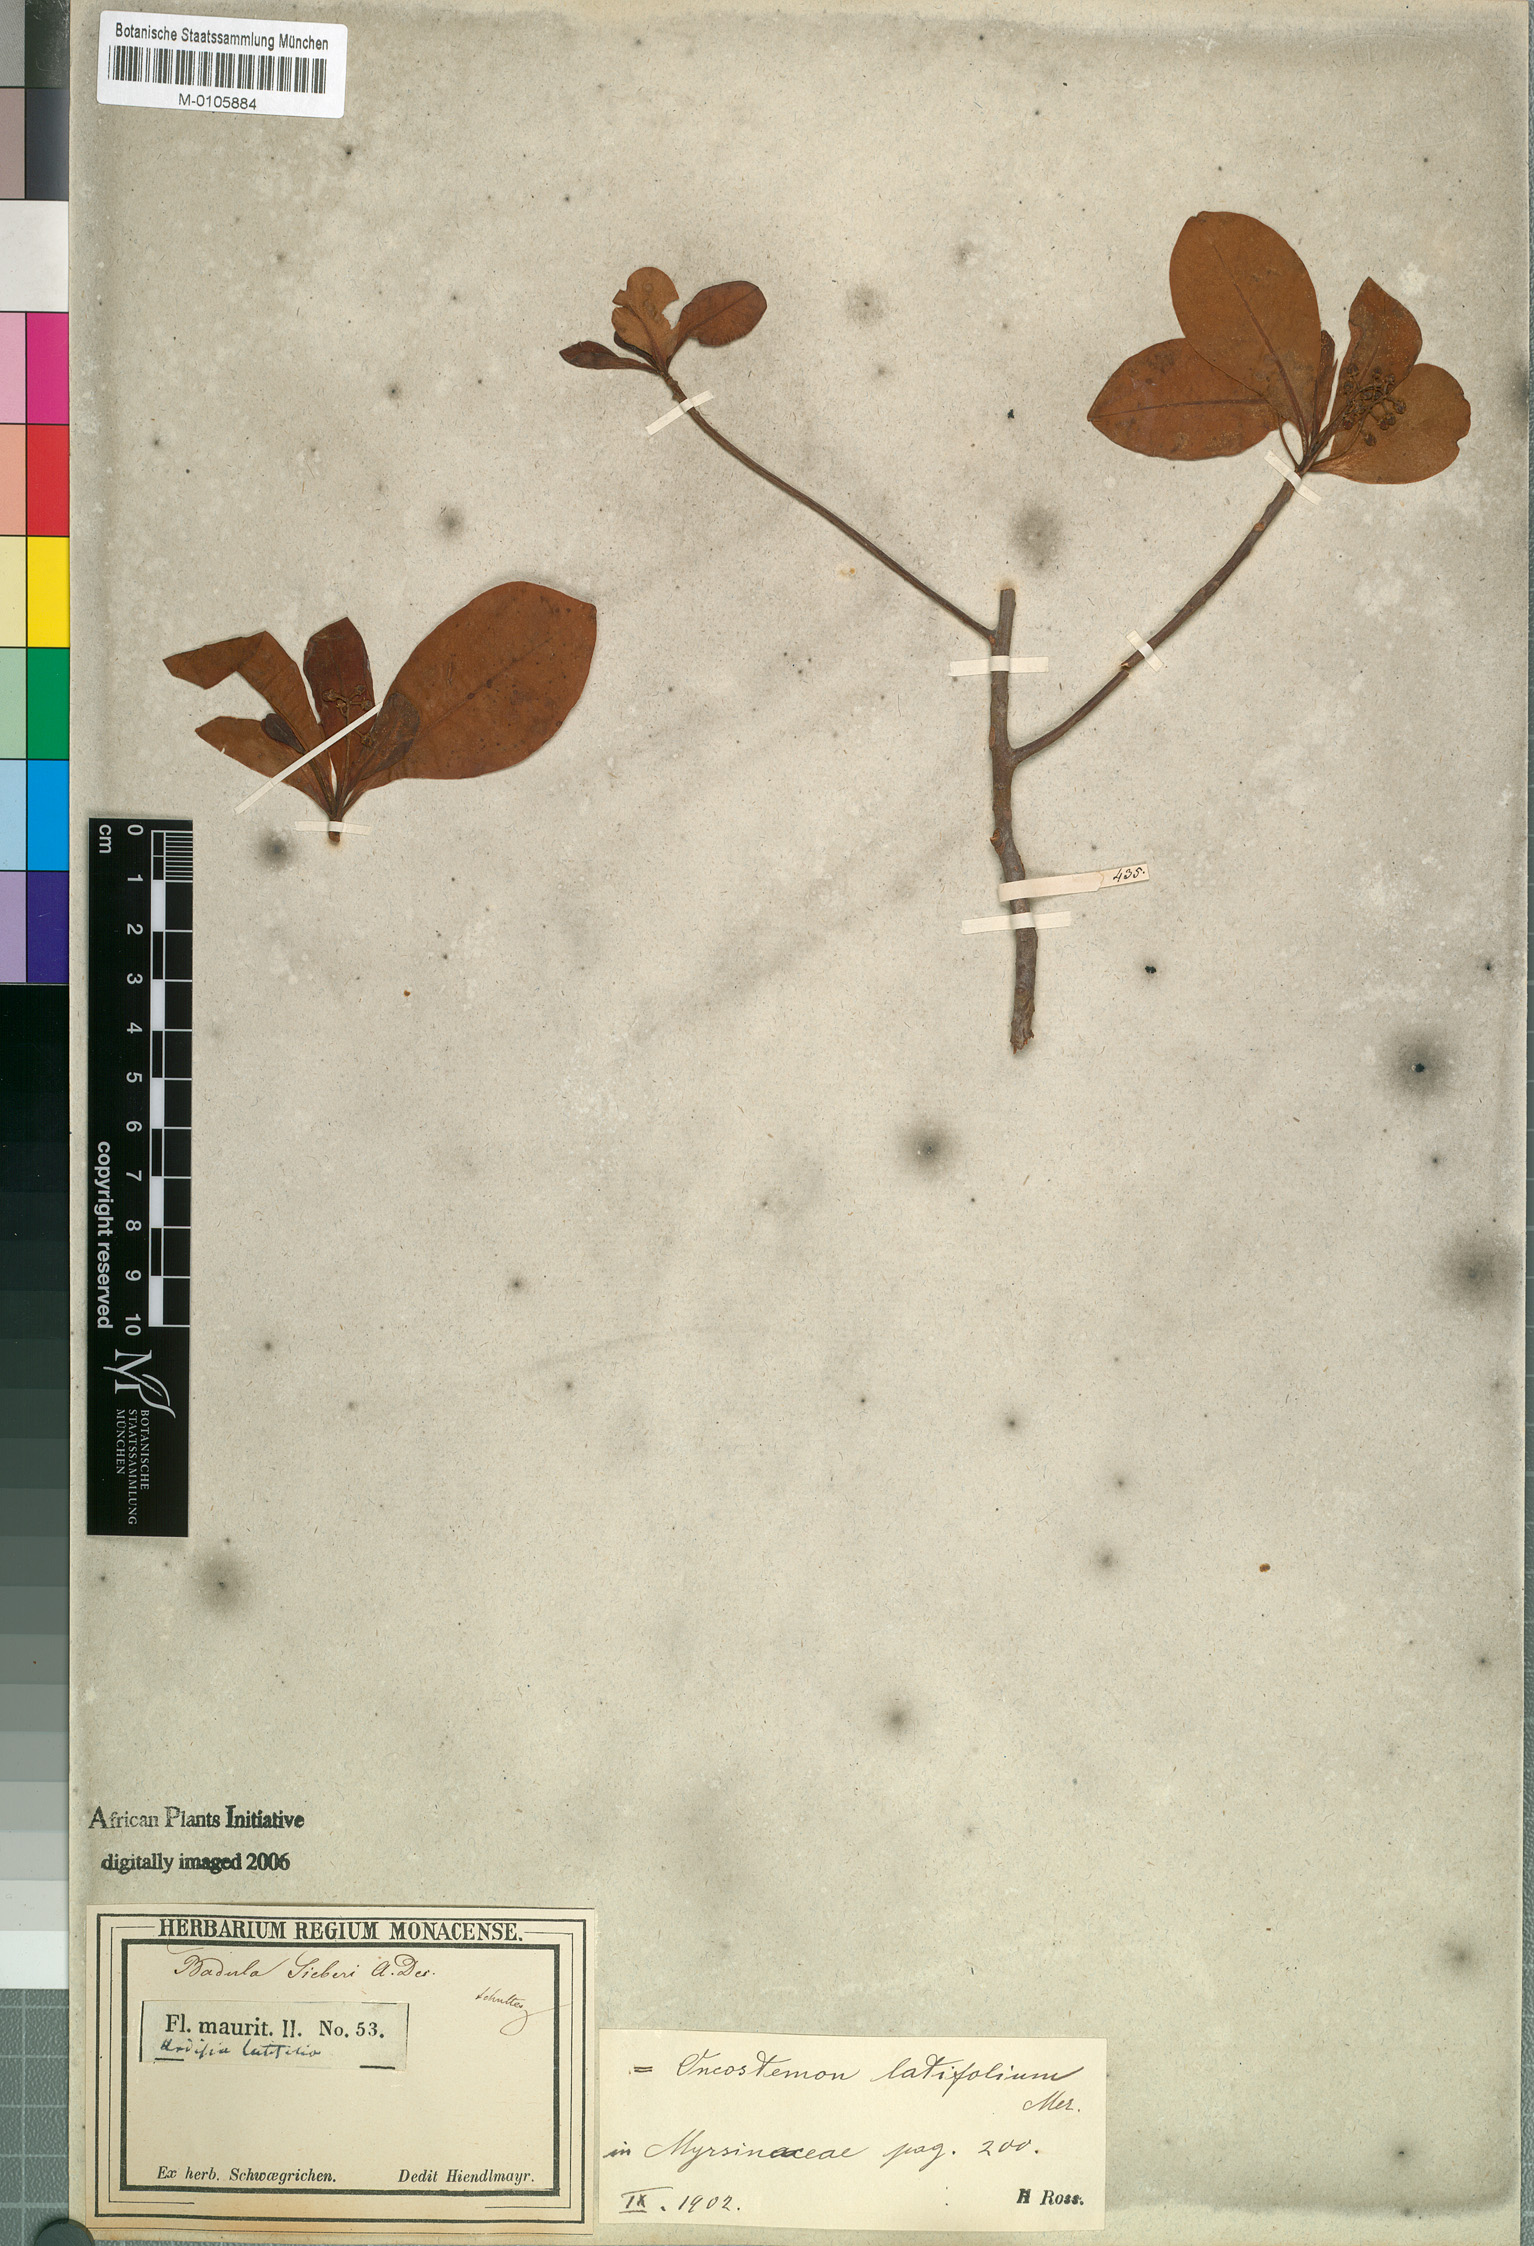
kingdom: Plantae
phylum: Tracheophyta
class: Magnoliopsida
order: Ericales
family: Primulaceae
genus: Badula
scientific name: Badula sieberi
